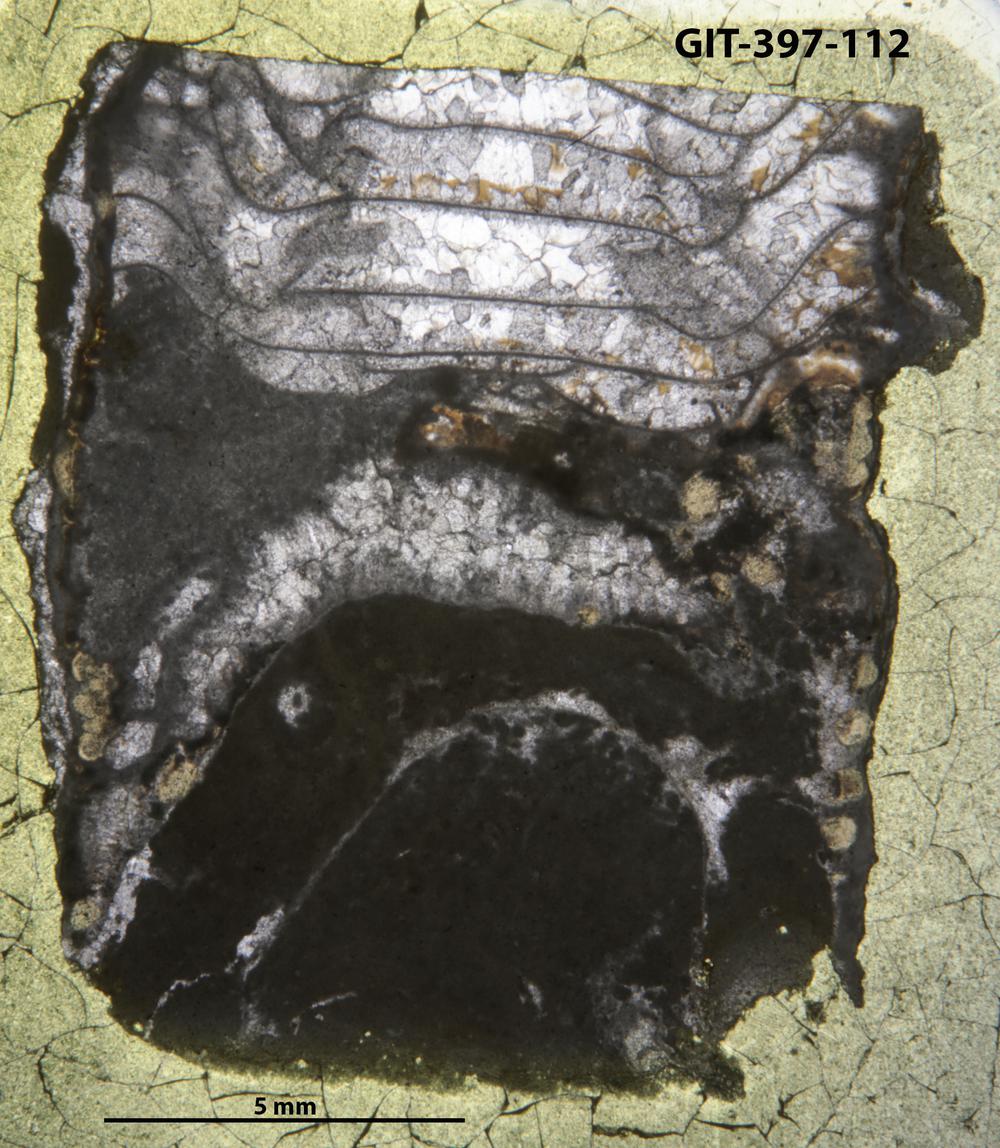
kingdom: Animalia
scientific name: Animalia
